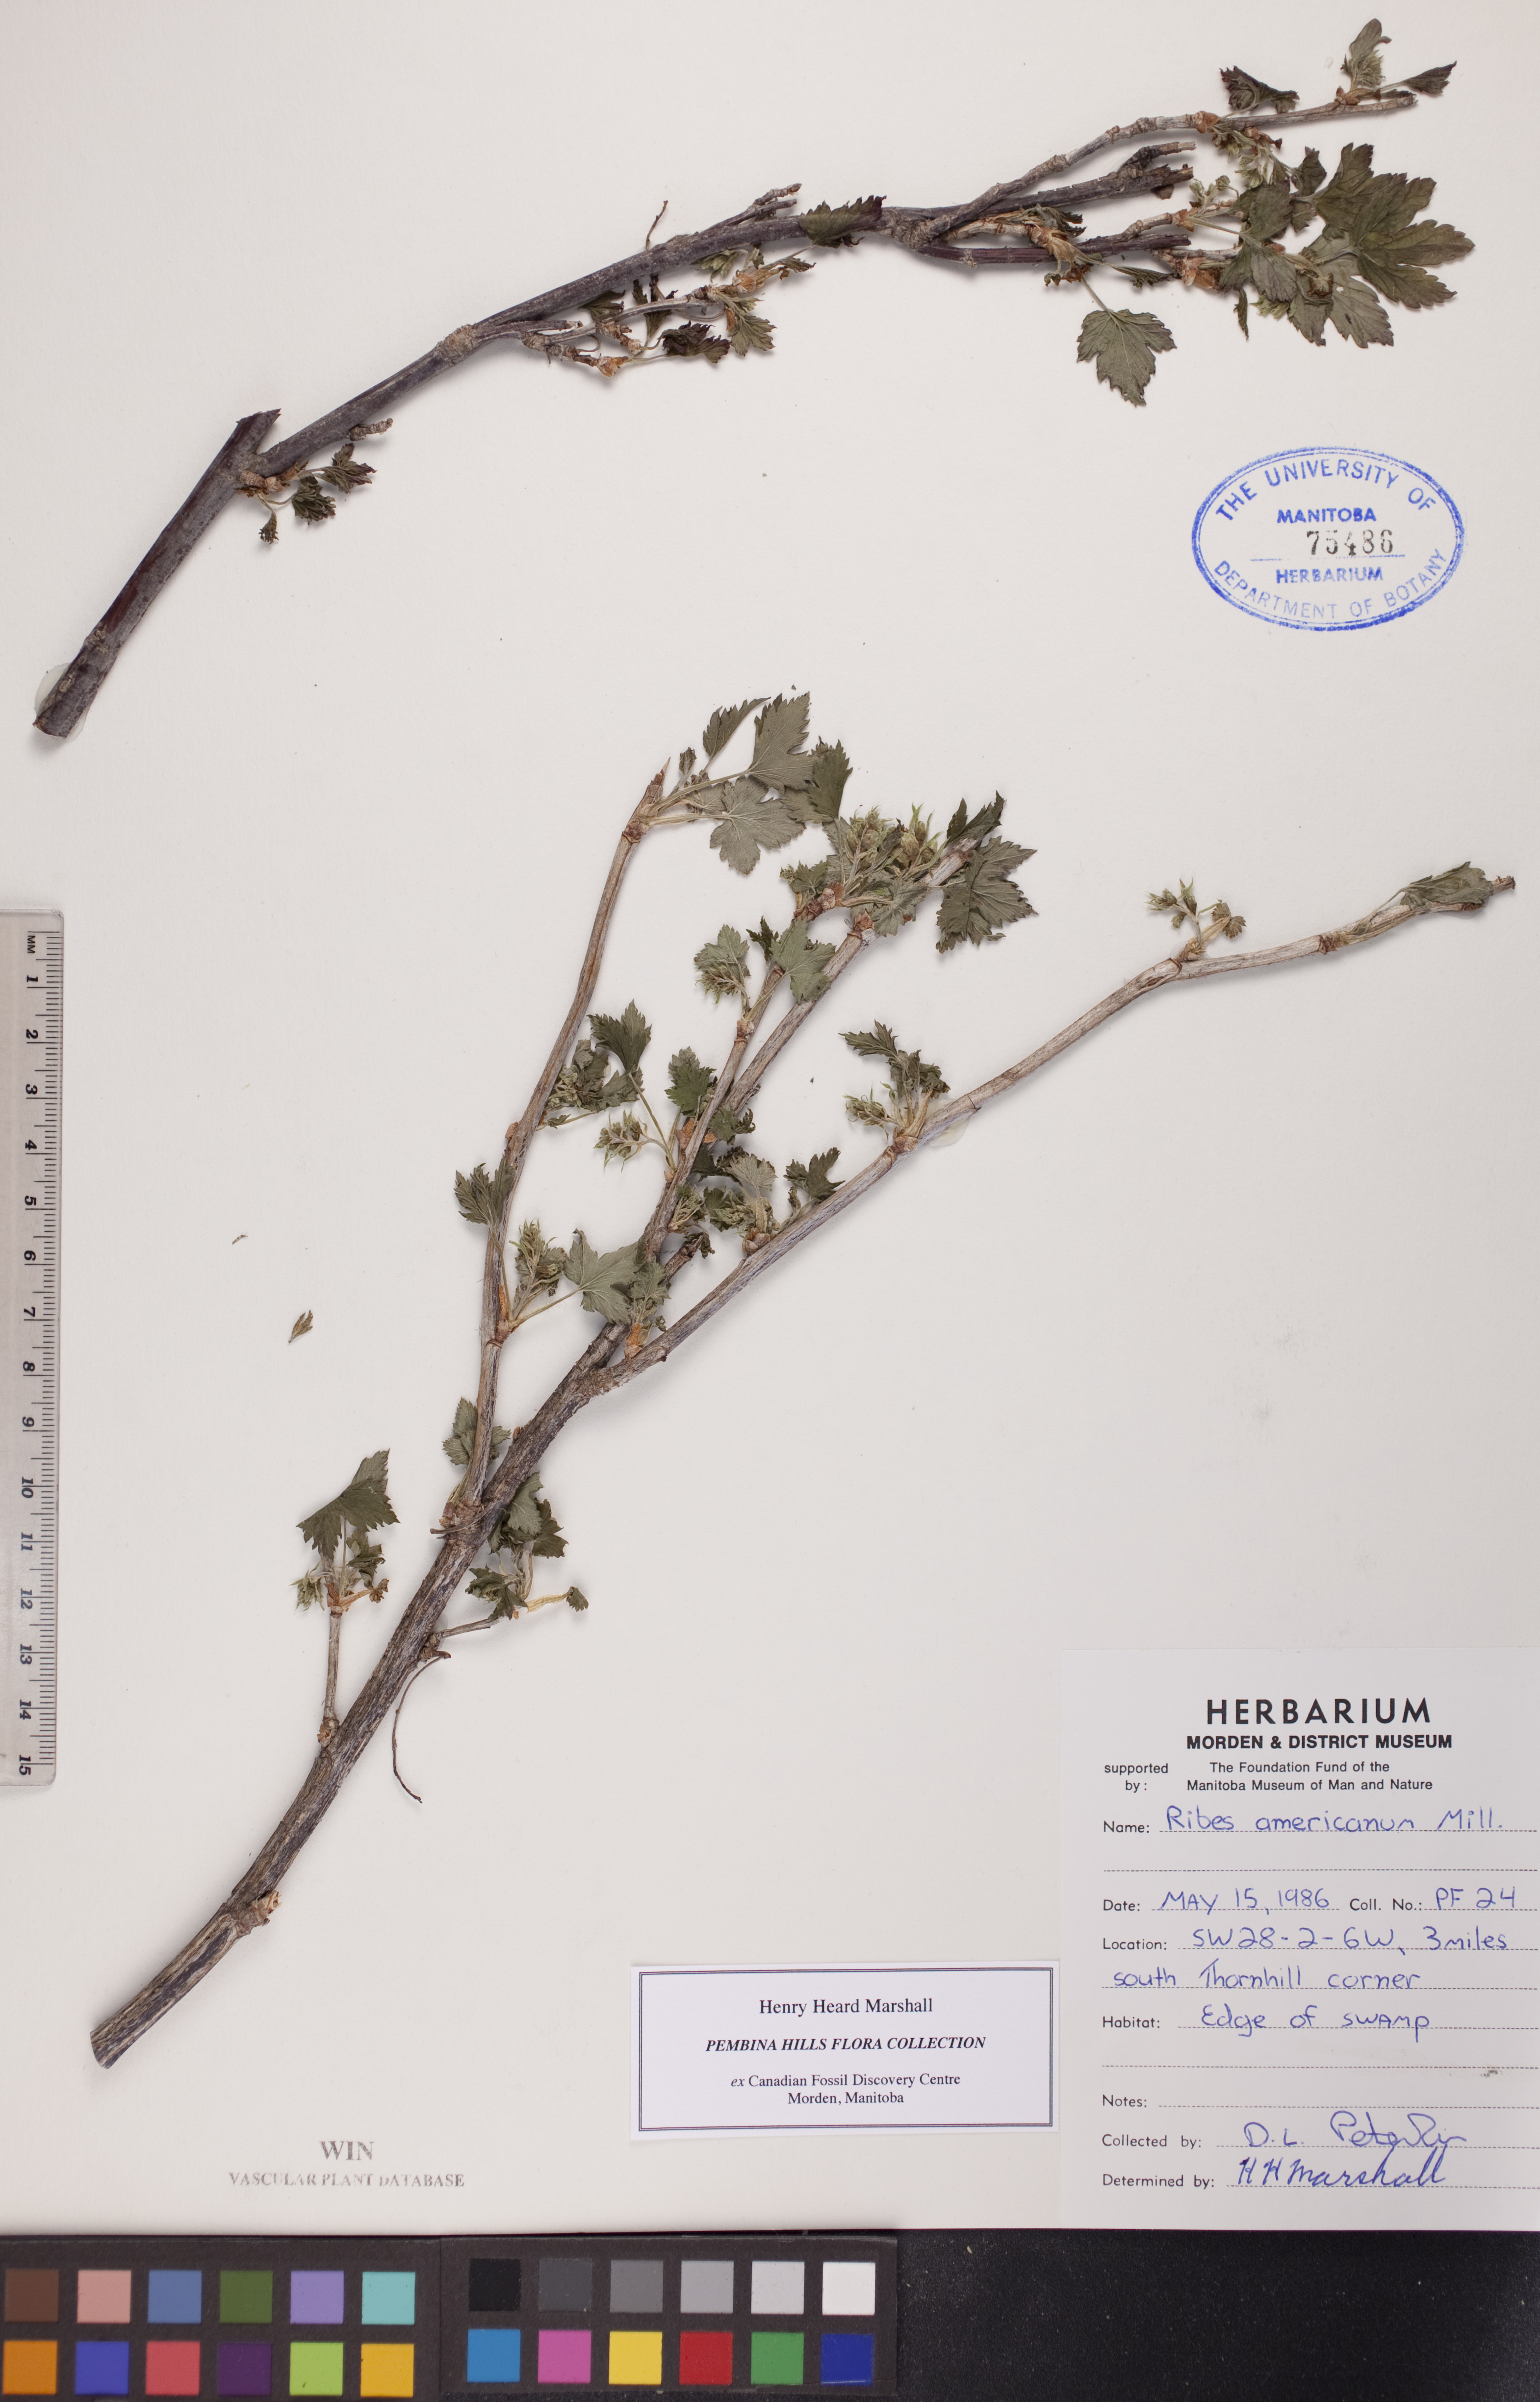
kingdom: Plantae
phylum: Tracheophyta
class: Magnoliopsida
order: Saxifragales
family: Grossulariaceae
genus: Ribes
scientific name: Ribes americanum
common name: American black currant
